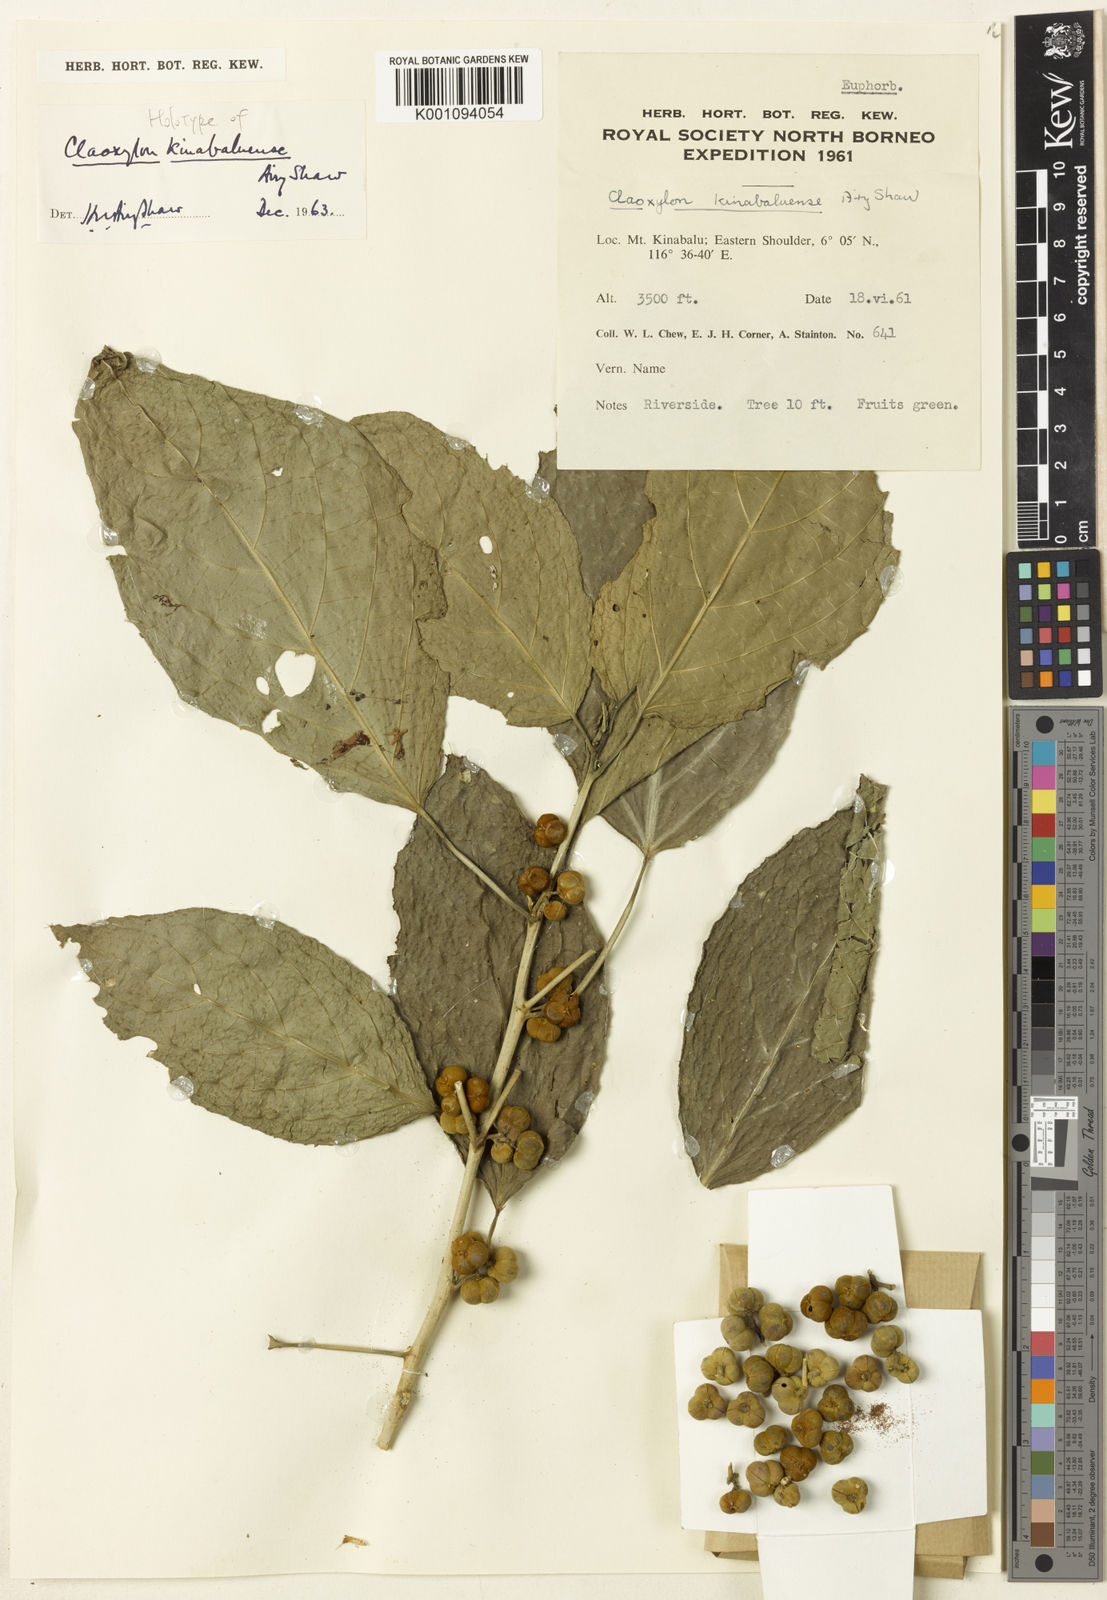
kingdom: Plantae
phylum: Tracheophyta
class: Magnoliopsida
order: Malpighiales
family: Euphorbiaceae
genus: Claoxylon
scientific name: Claoxylon kinabaluense
